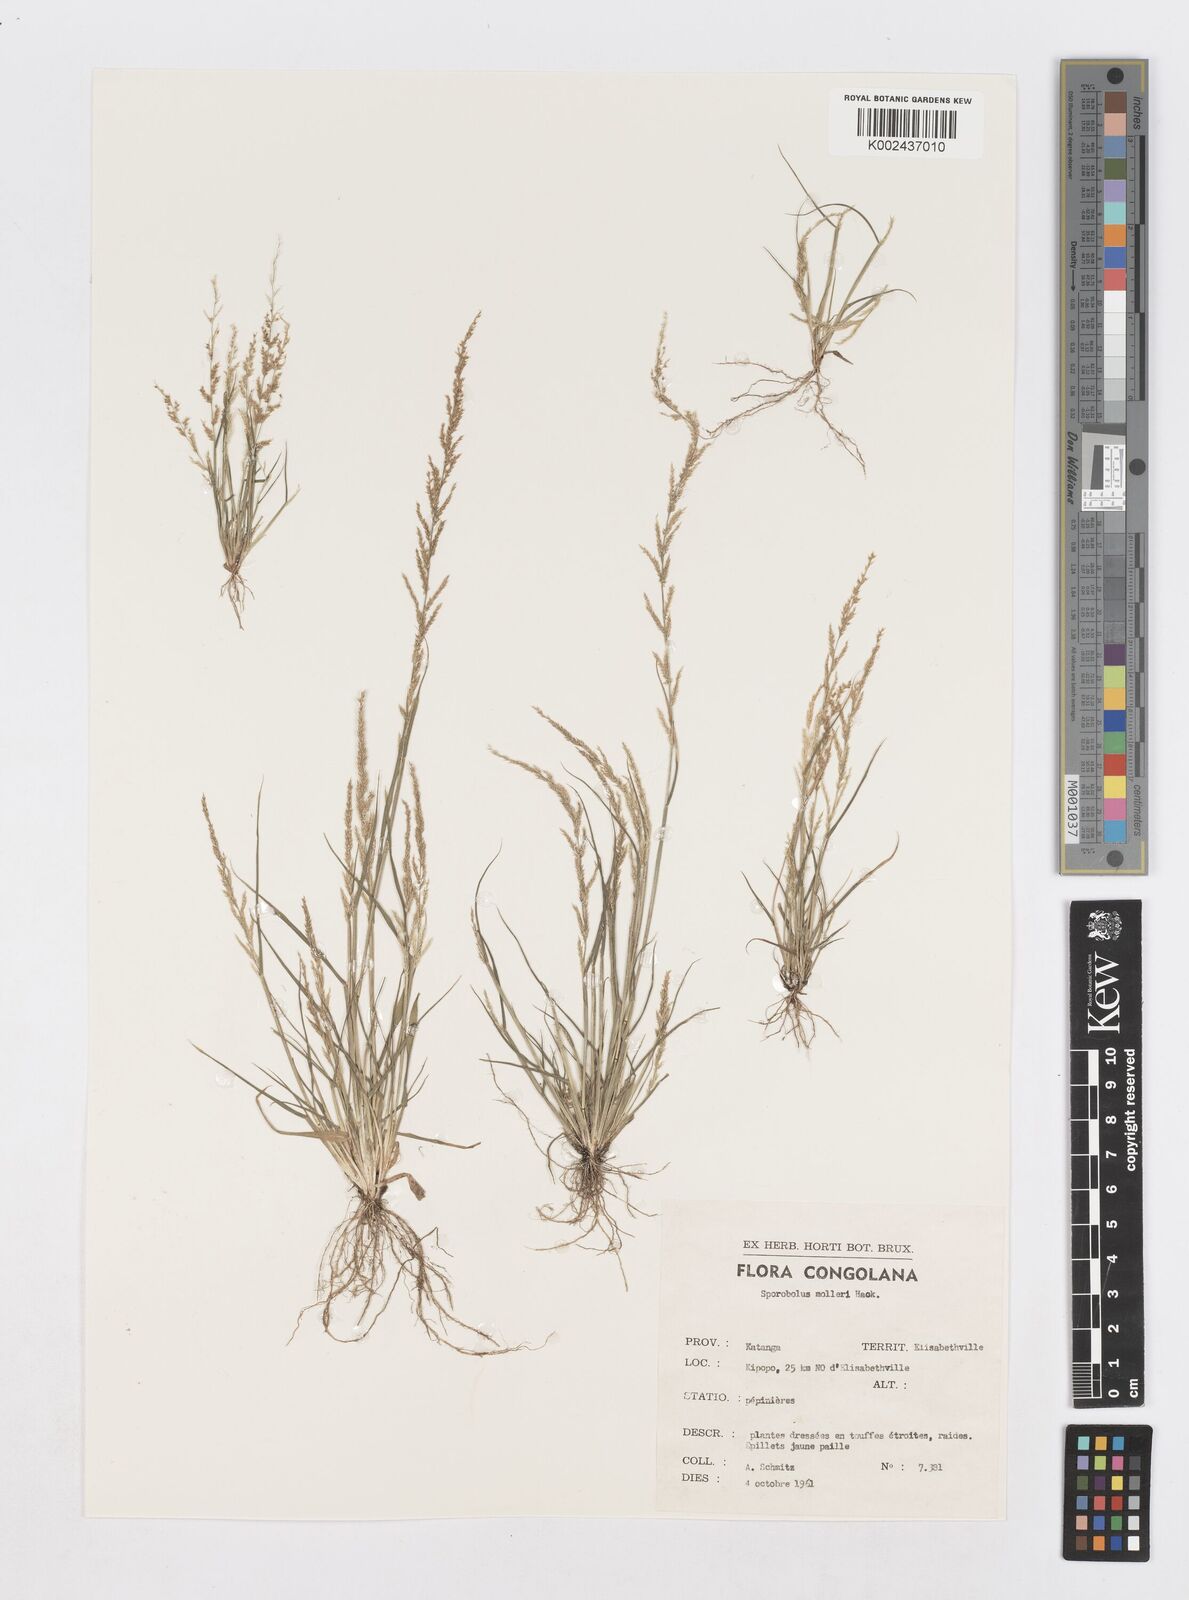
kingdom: Plantae
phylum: Tracheophyta
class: Liliopsida
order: Poales
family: Poaceae
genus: Sporobolus
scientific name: Sporobolus molleri
